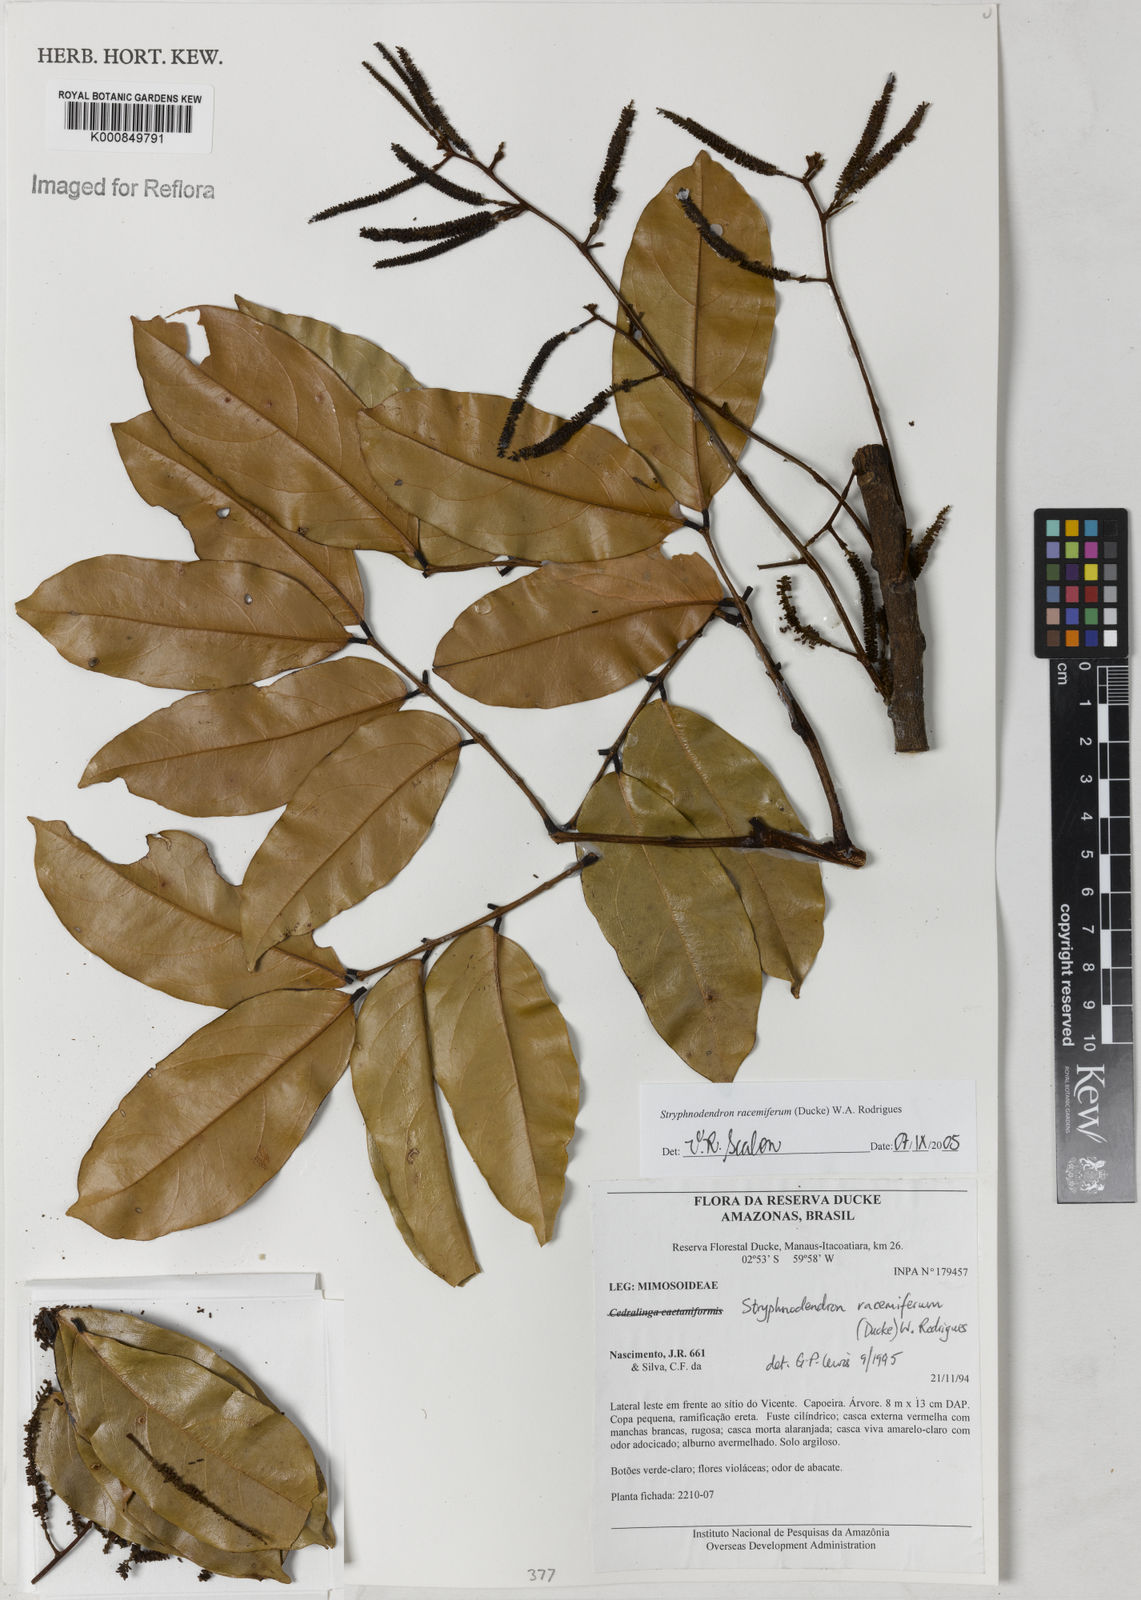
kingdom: Plantae
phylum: Tracheophyta
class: Magnoliopsida
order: Fabales
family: Fabaceae
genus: Stryphnodendron
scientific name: Stryphnodendron
